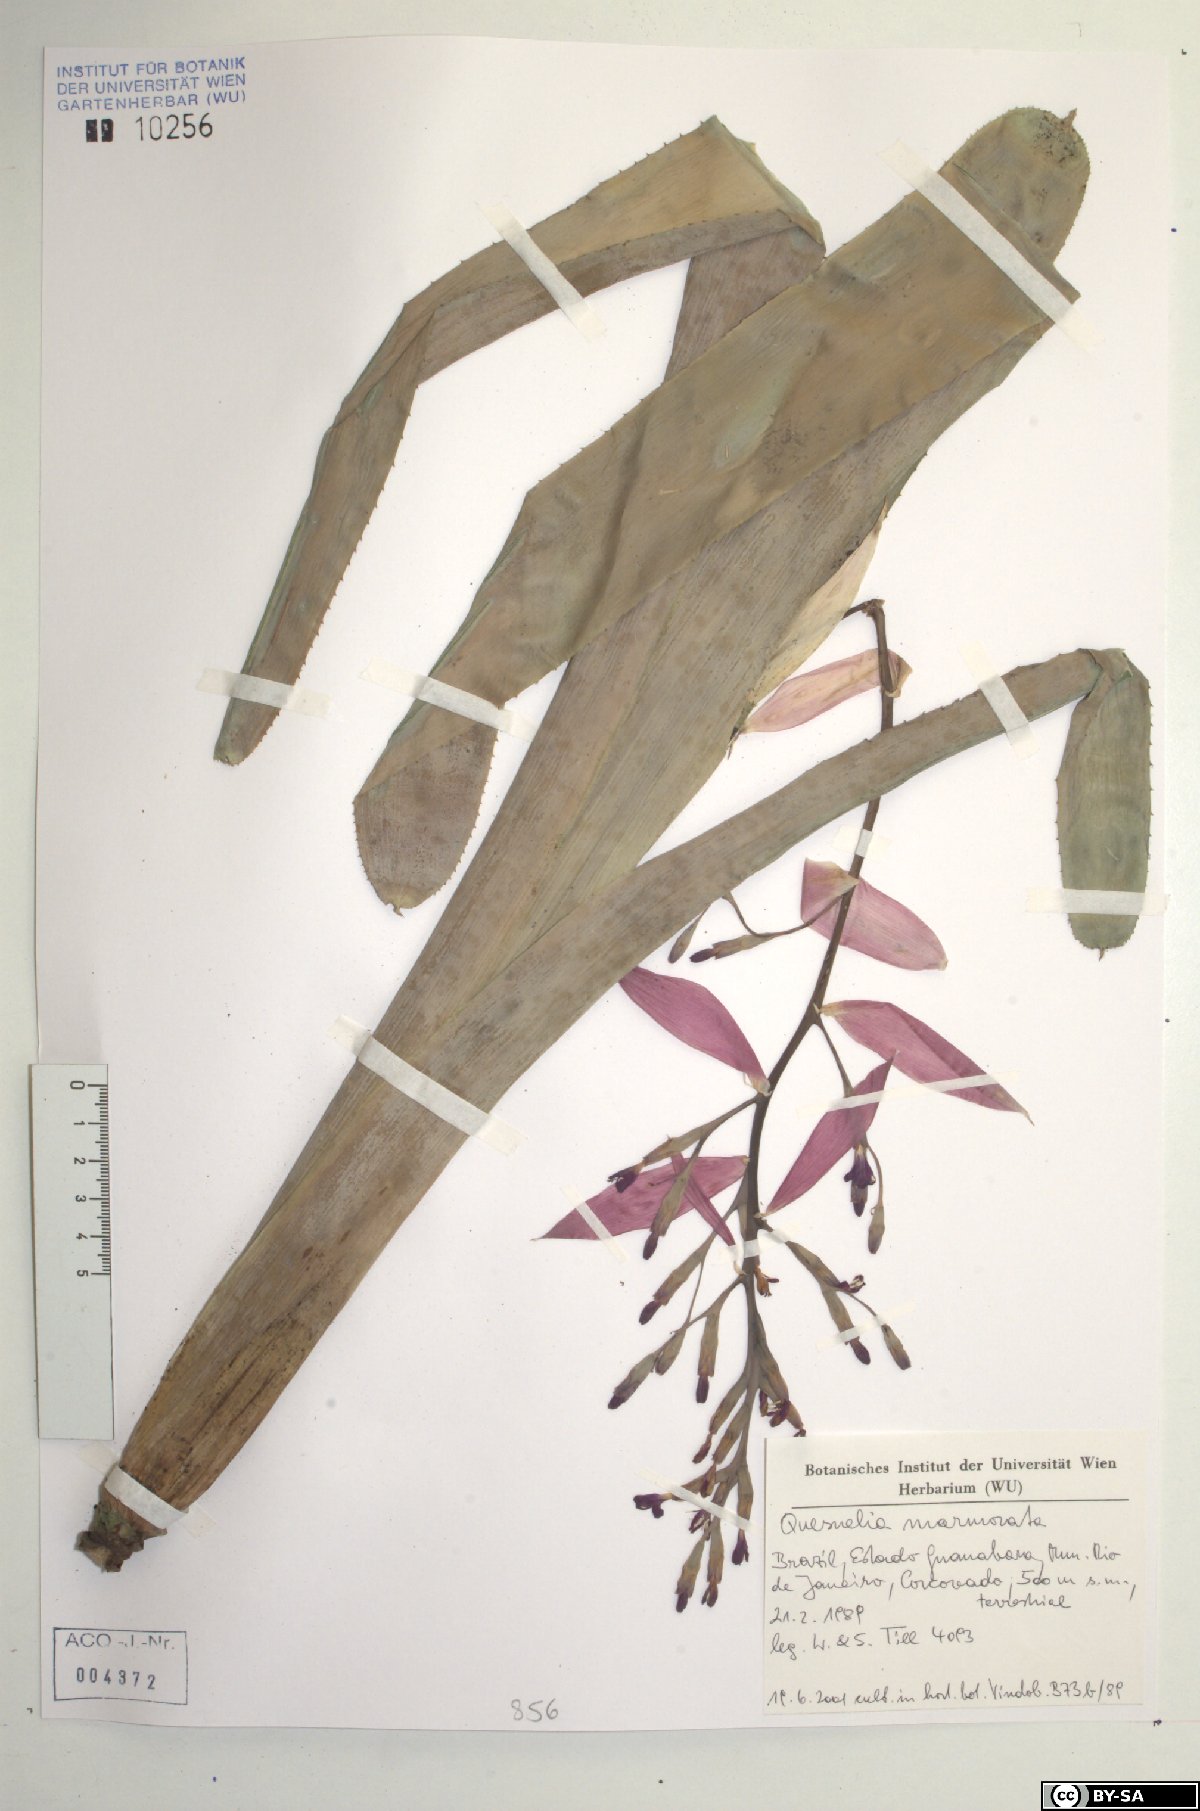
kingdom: Plantae
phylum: Tracheophyta
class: Liliopsida
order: Poales
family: Bromeliaceae
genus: Quesnelia
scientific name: Quesnelia marmorata
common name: Grecian urnplant
